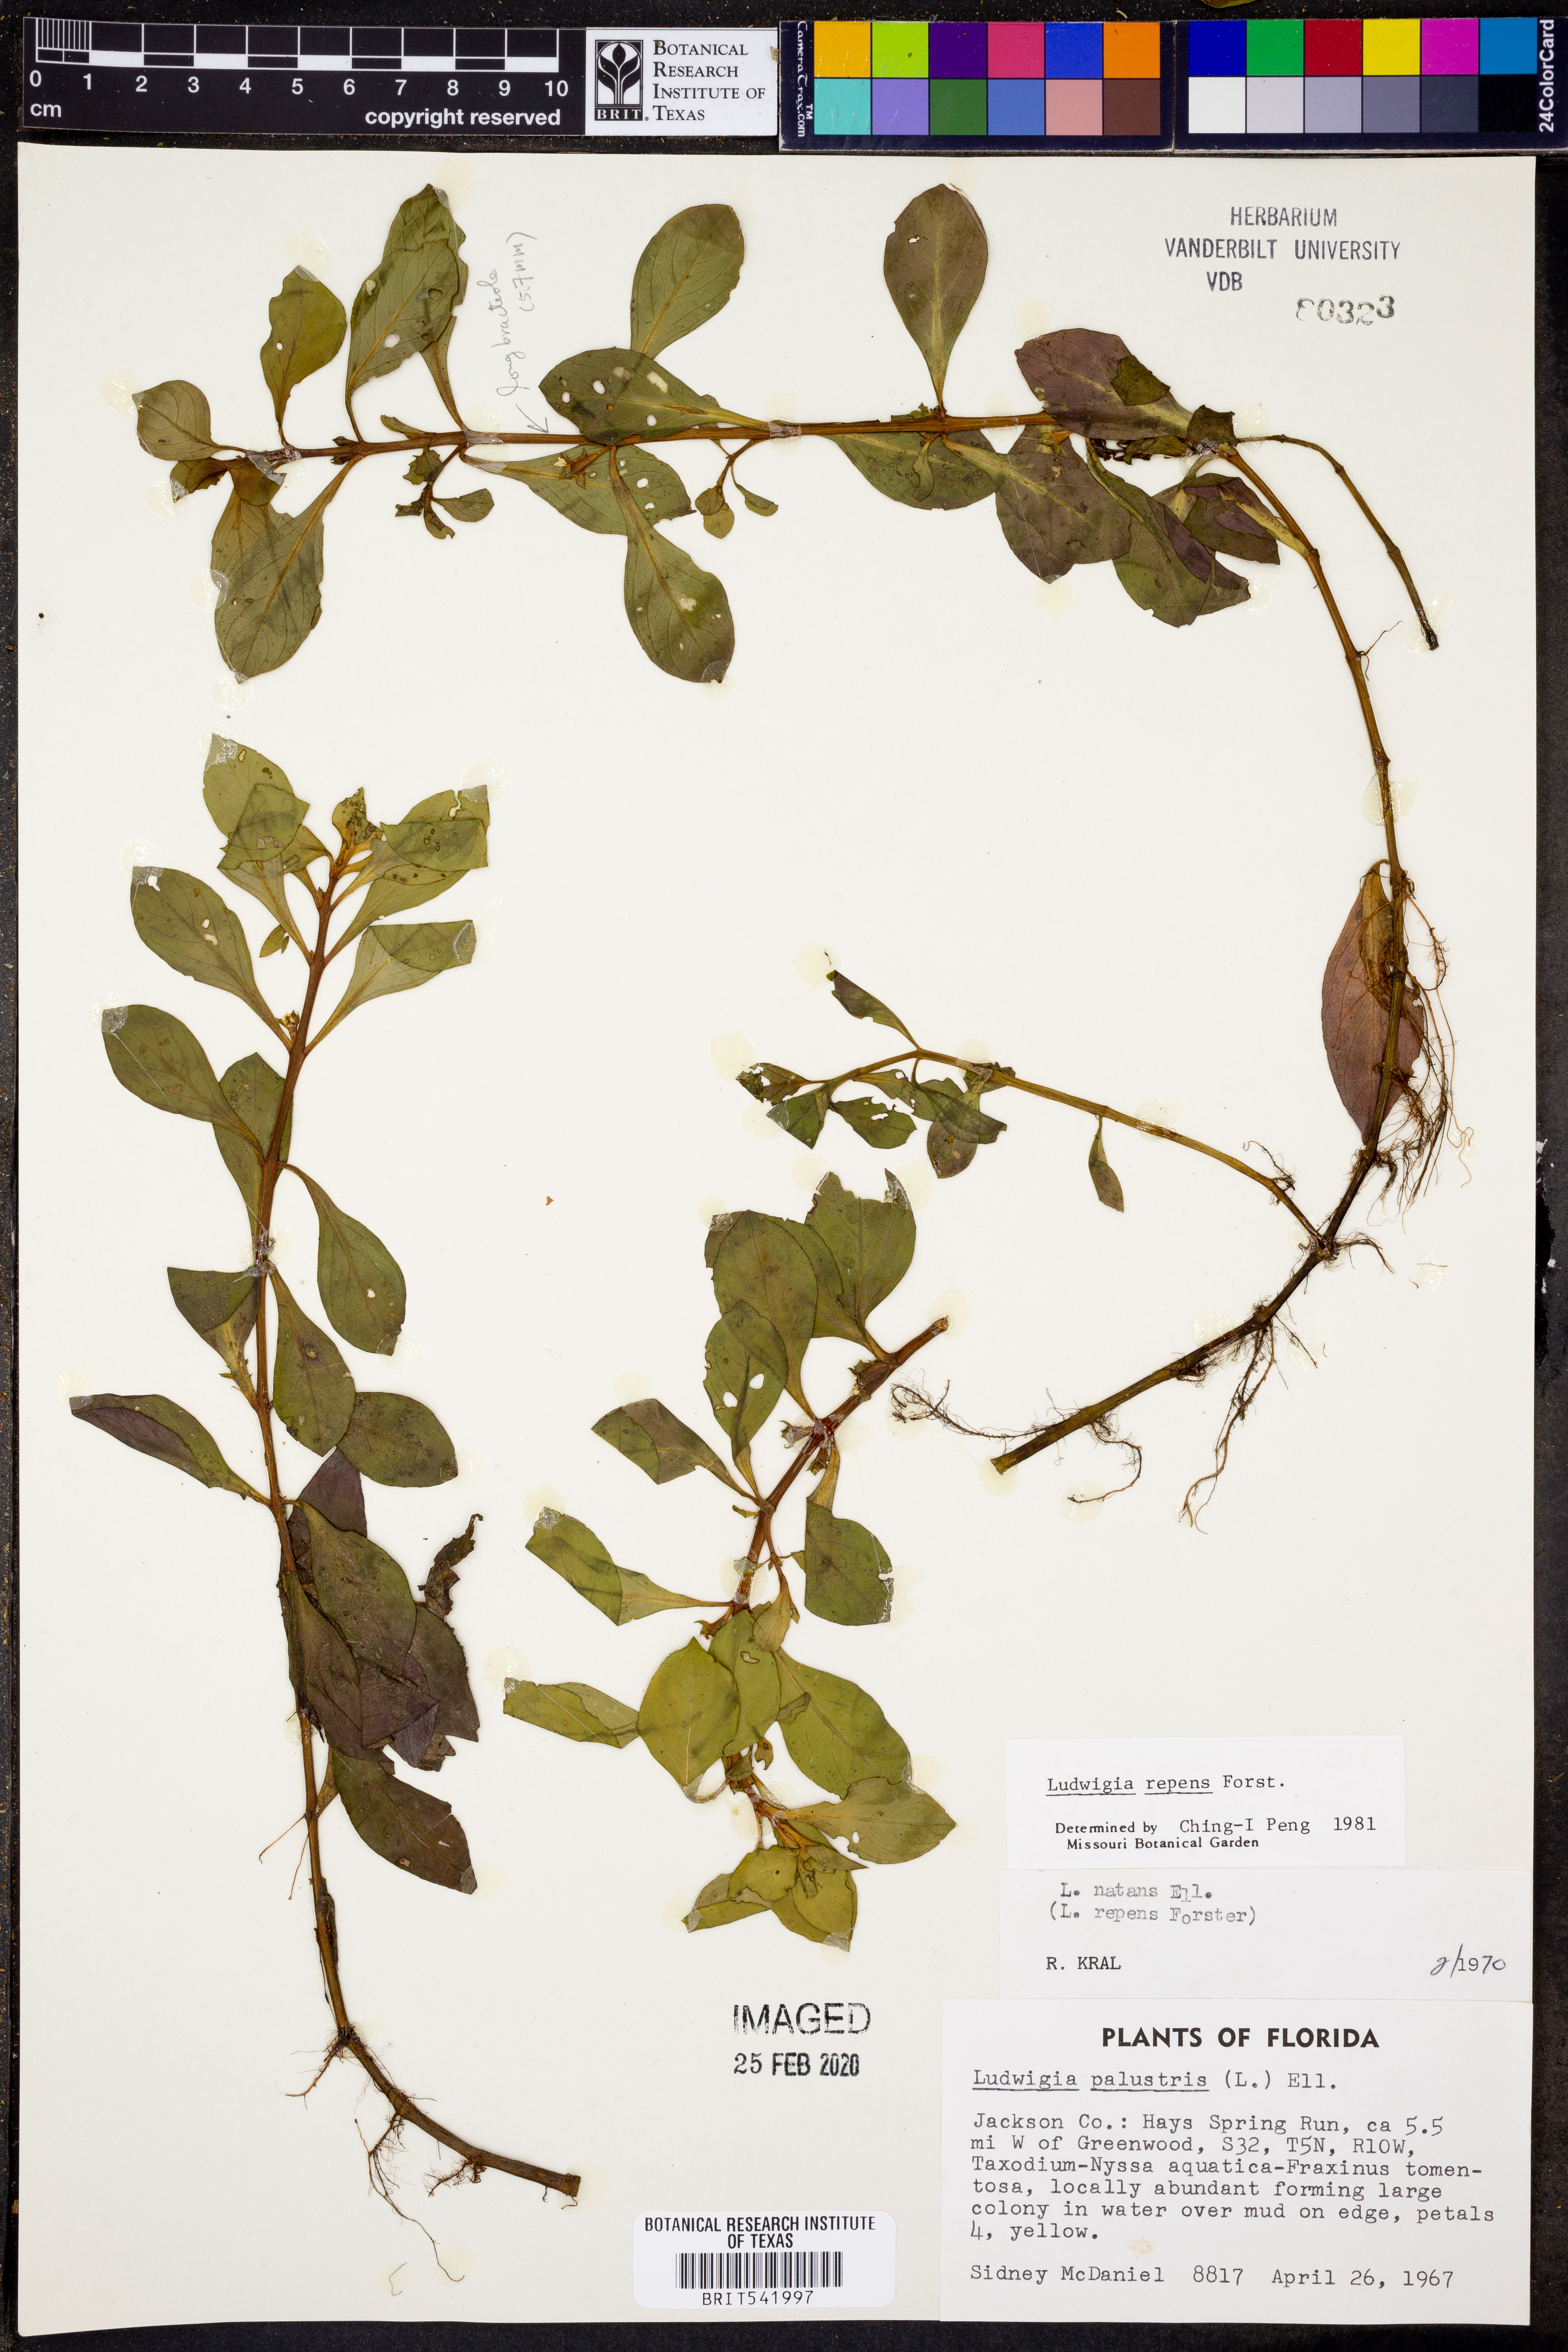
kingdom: Plantae
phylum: Tracheophyta
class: Magnoliopsida
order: Myrtales
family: Onagraceae
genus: Ludwigia
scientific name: Ludwigia repens
